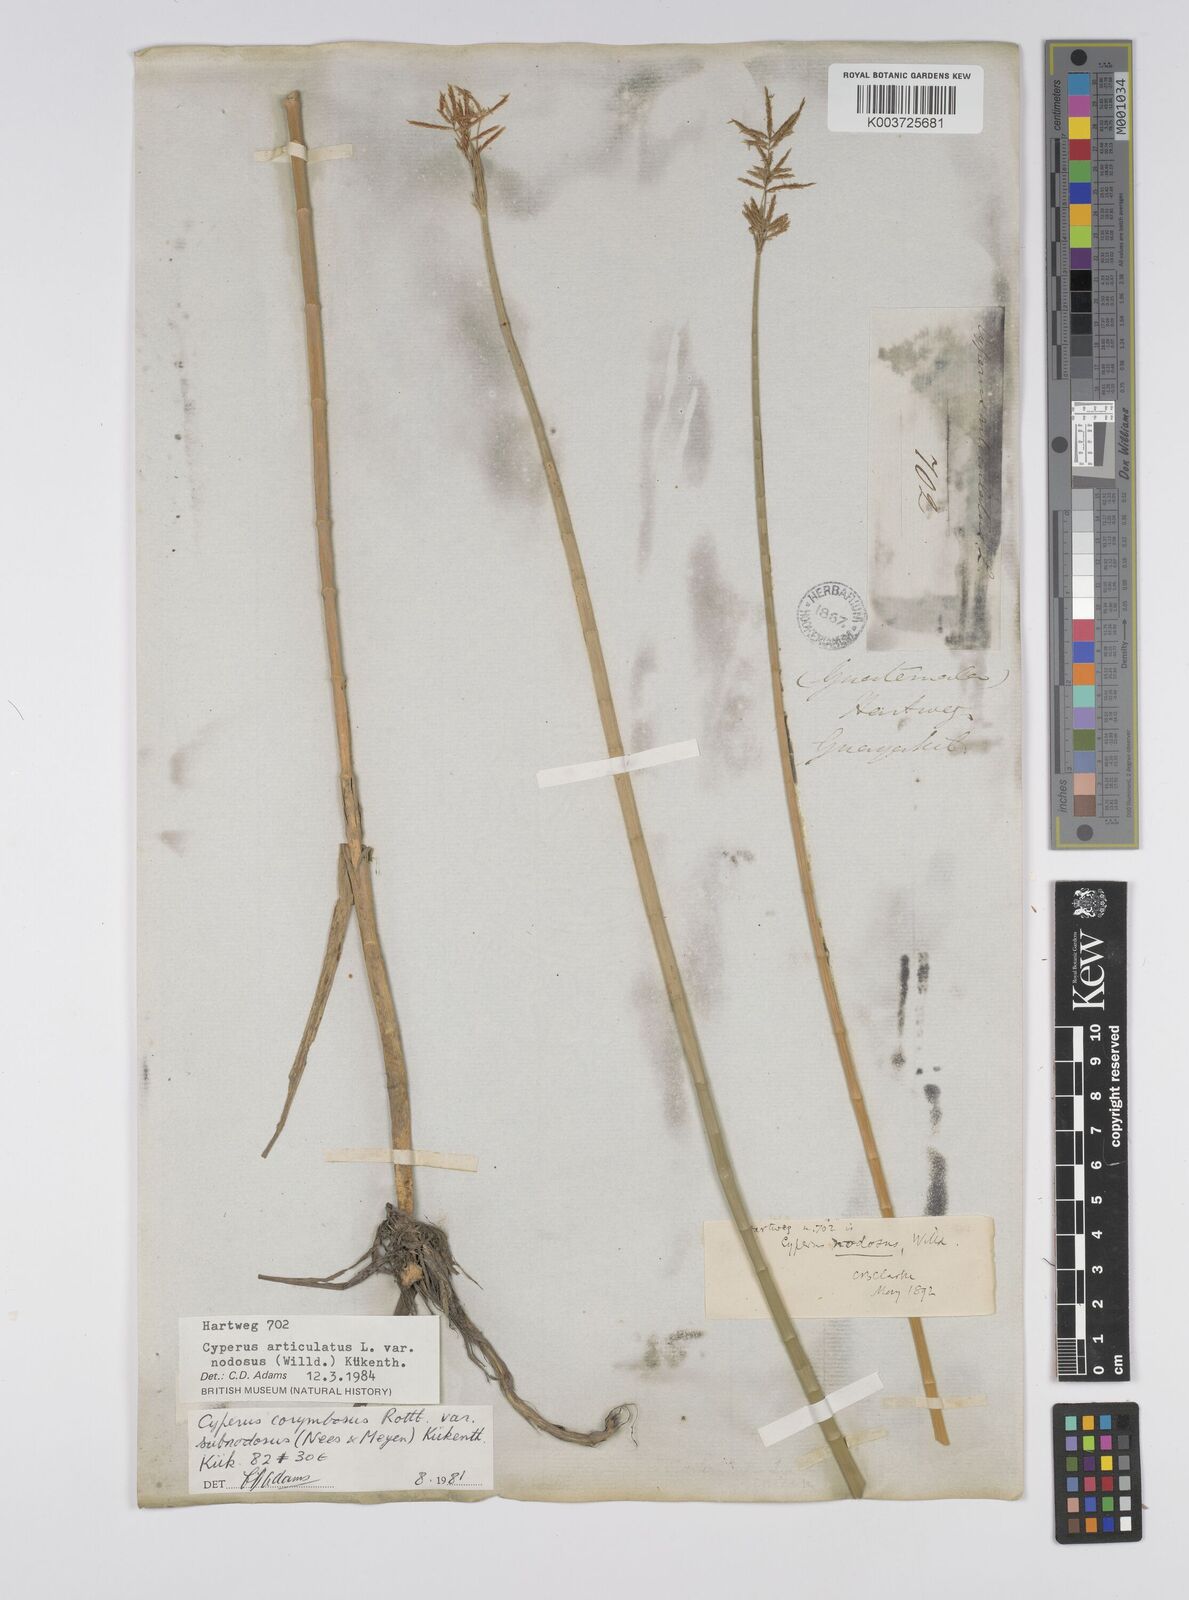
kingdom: Plantae
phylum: Tracheophyta
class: Liliopsida
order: Poales
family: Cyperaceae
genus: Cyperus
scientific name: Cyperus articulatus
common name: Jointed flatsedge
